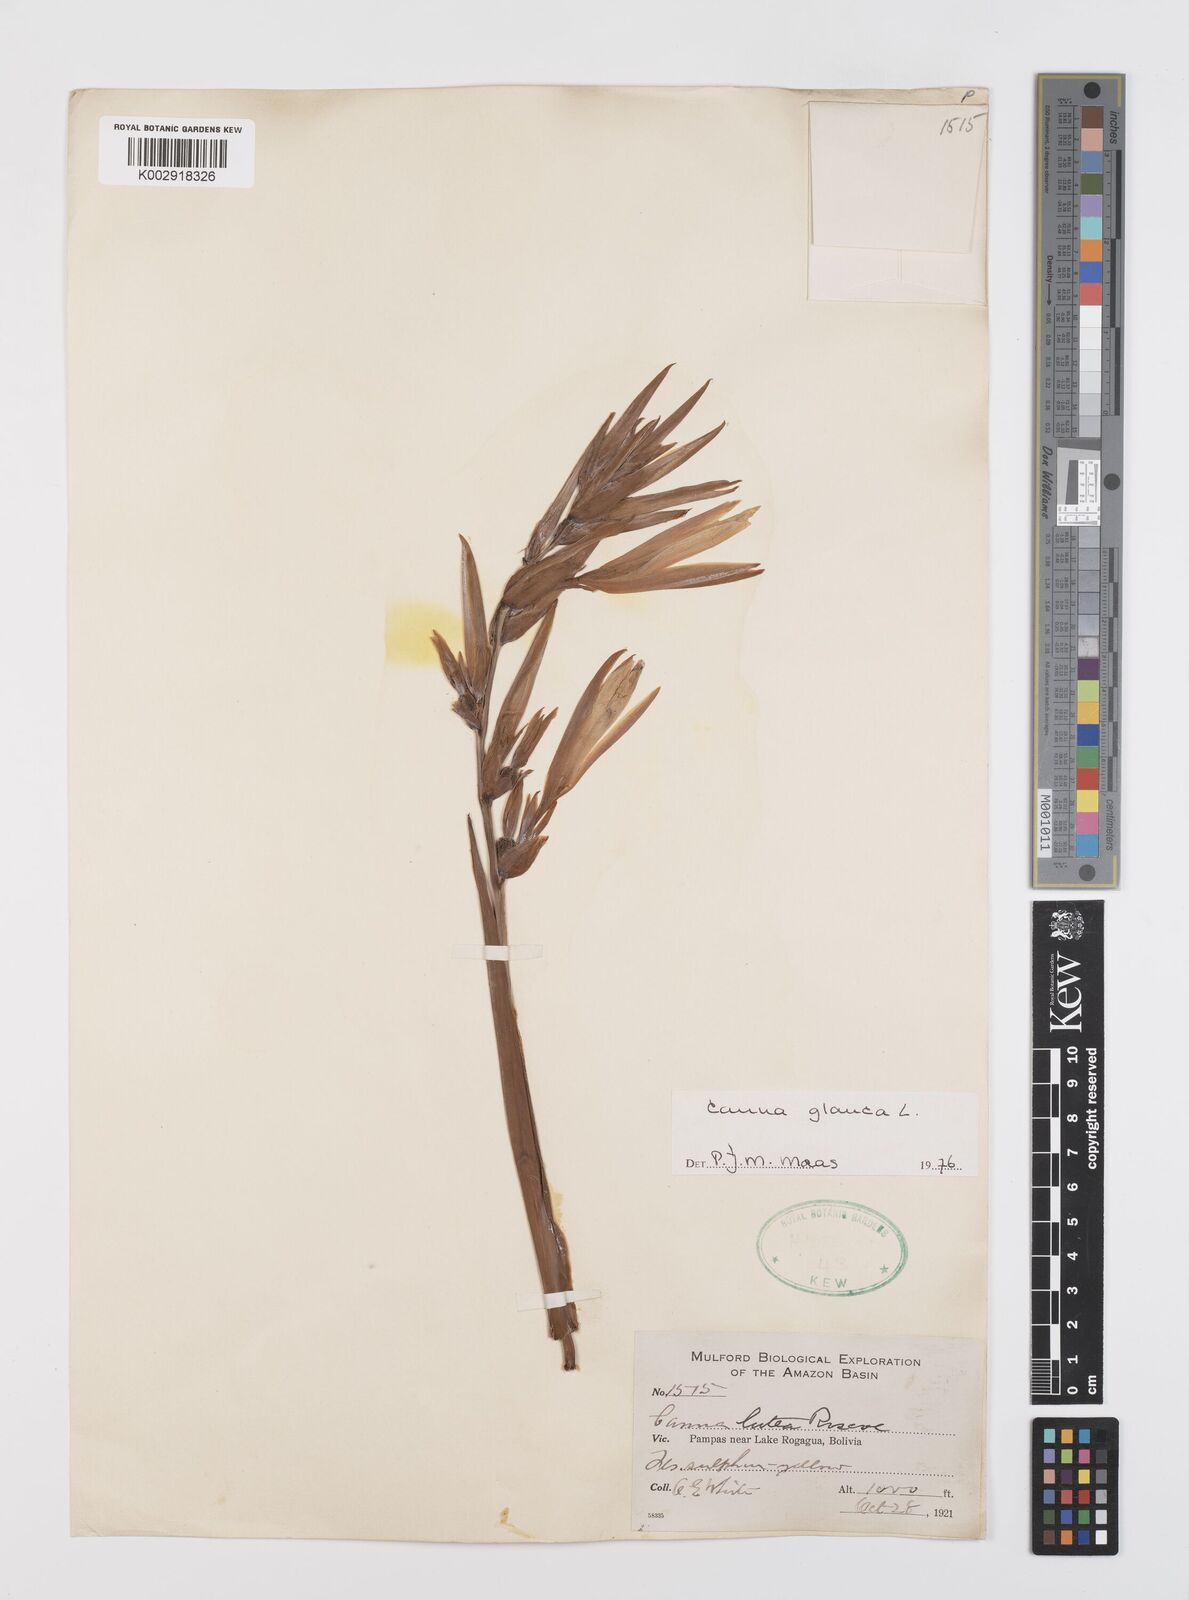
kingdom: Plantae
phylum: Tracheophyta
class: Liliopsida
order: Zingiberales
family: Cannaceae
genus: Canna
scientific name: Canna glauca
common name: Louisiana canna
